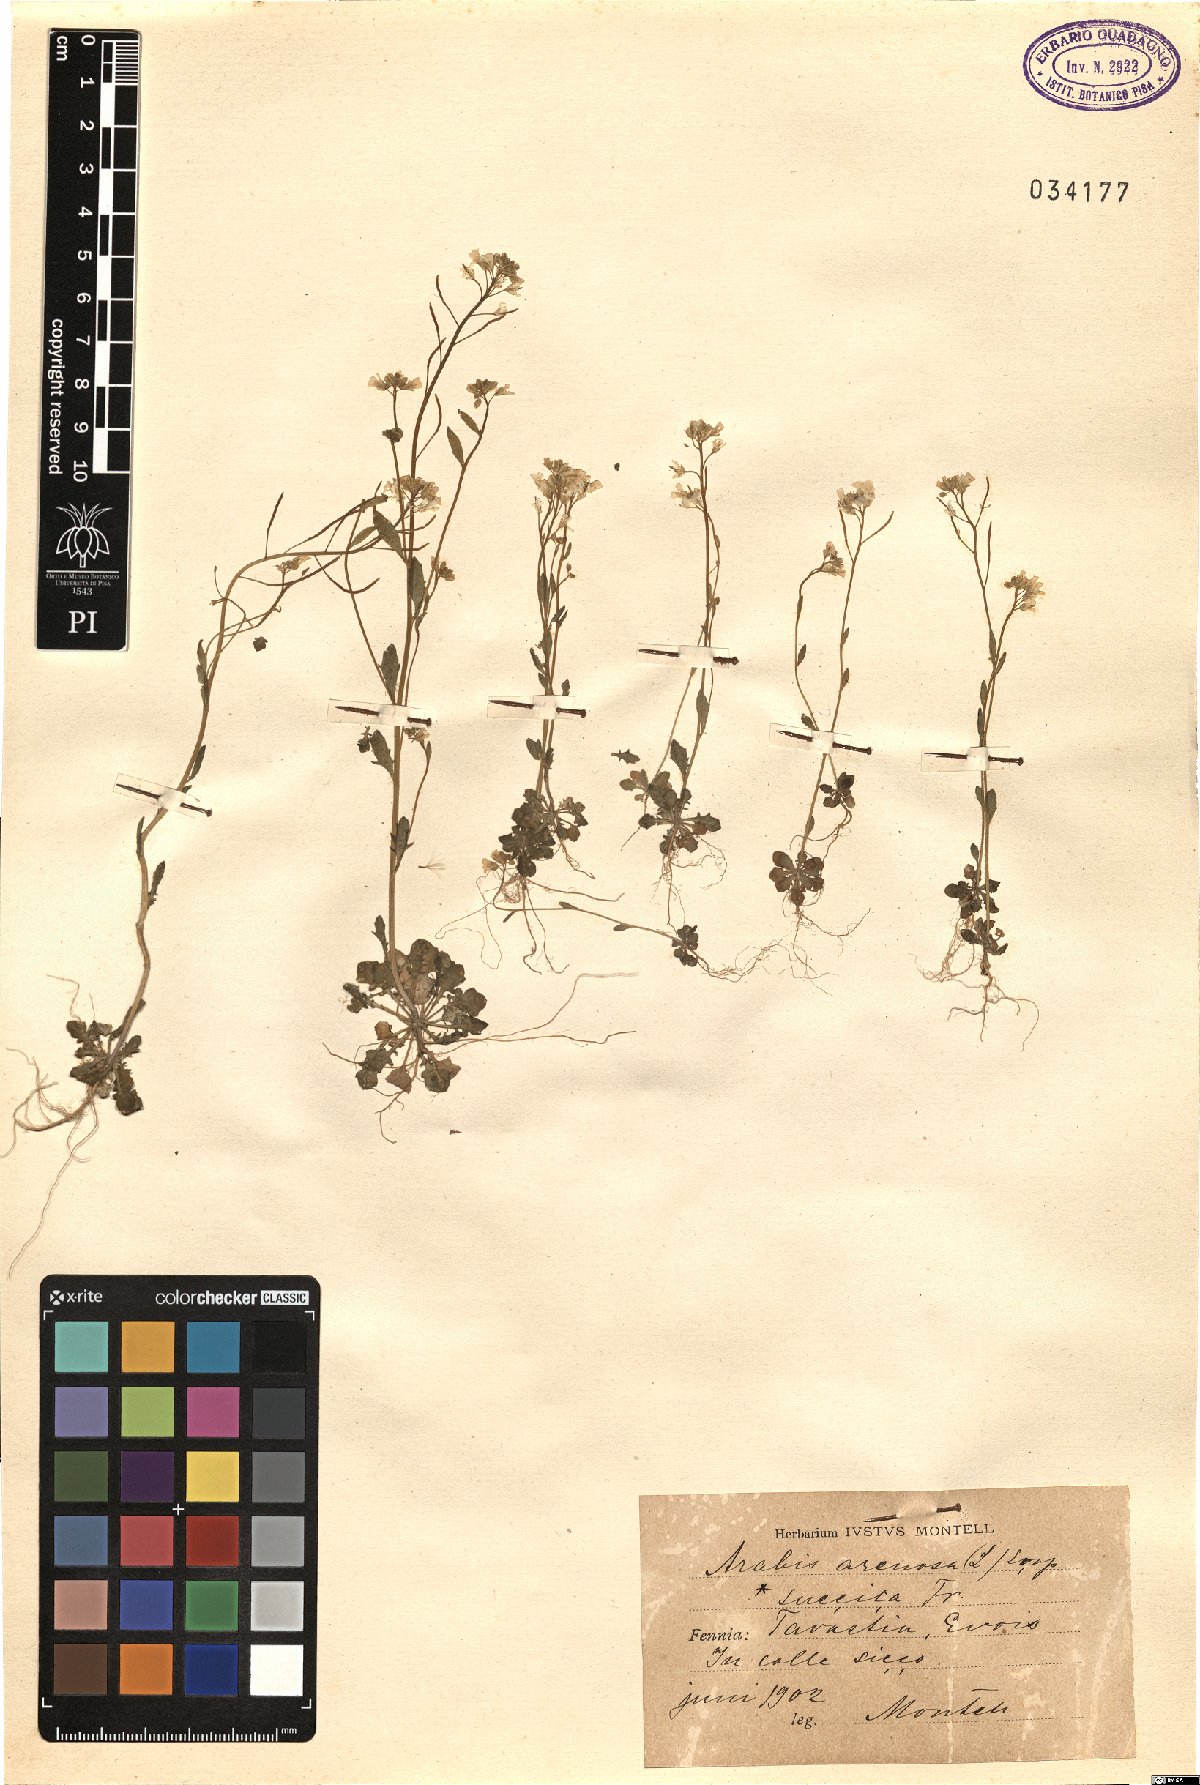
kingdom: Plantae
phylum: Tracheophyta
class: Magnoliopsida
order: Brassicales
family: Brassicaceae
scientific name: Brassicaceae
